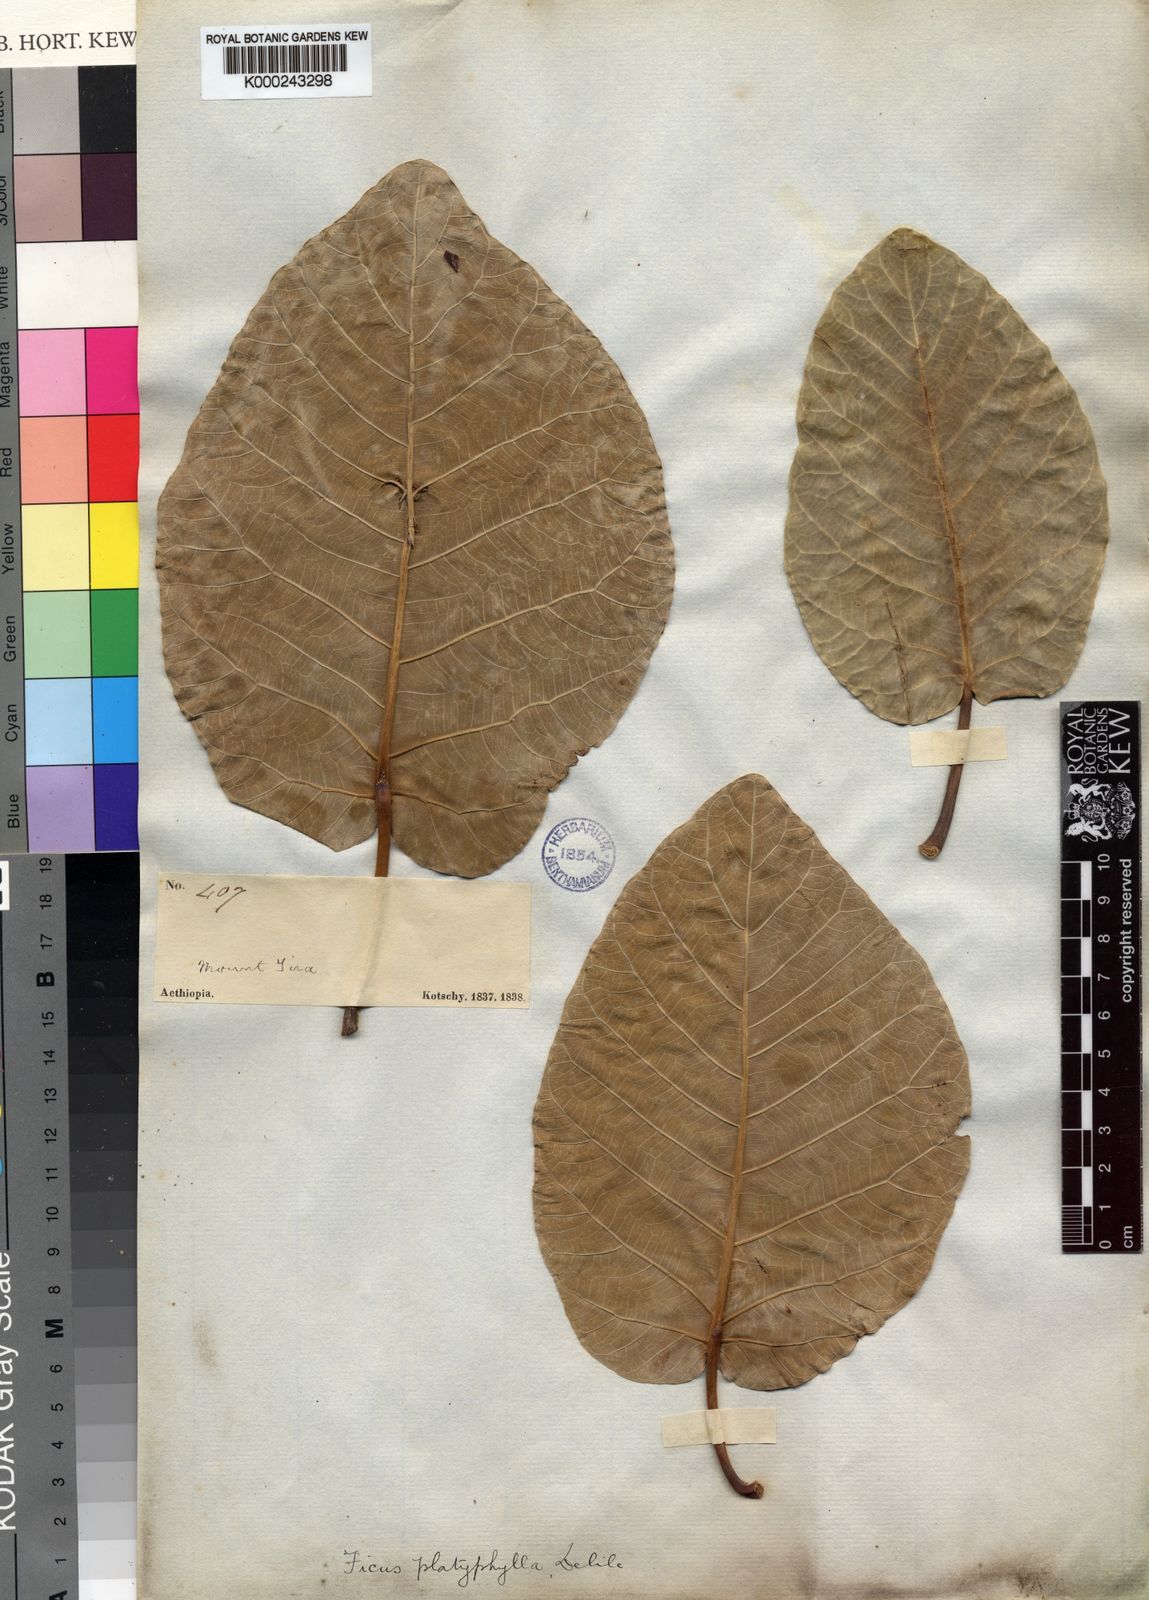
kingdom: Plantae
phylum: Tracheophyta
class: Magnoliopsida
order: Rosales
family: Moraceae
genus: Ficus
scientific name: Ficus platyphylla
